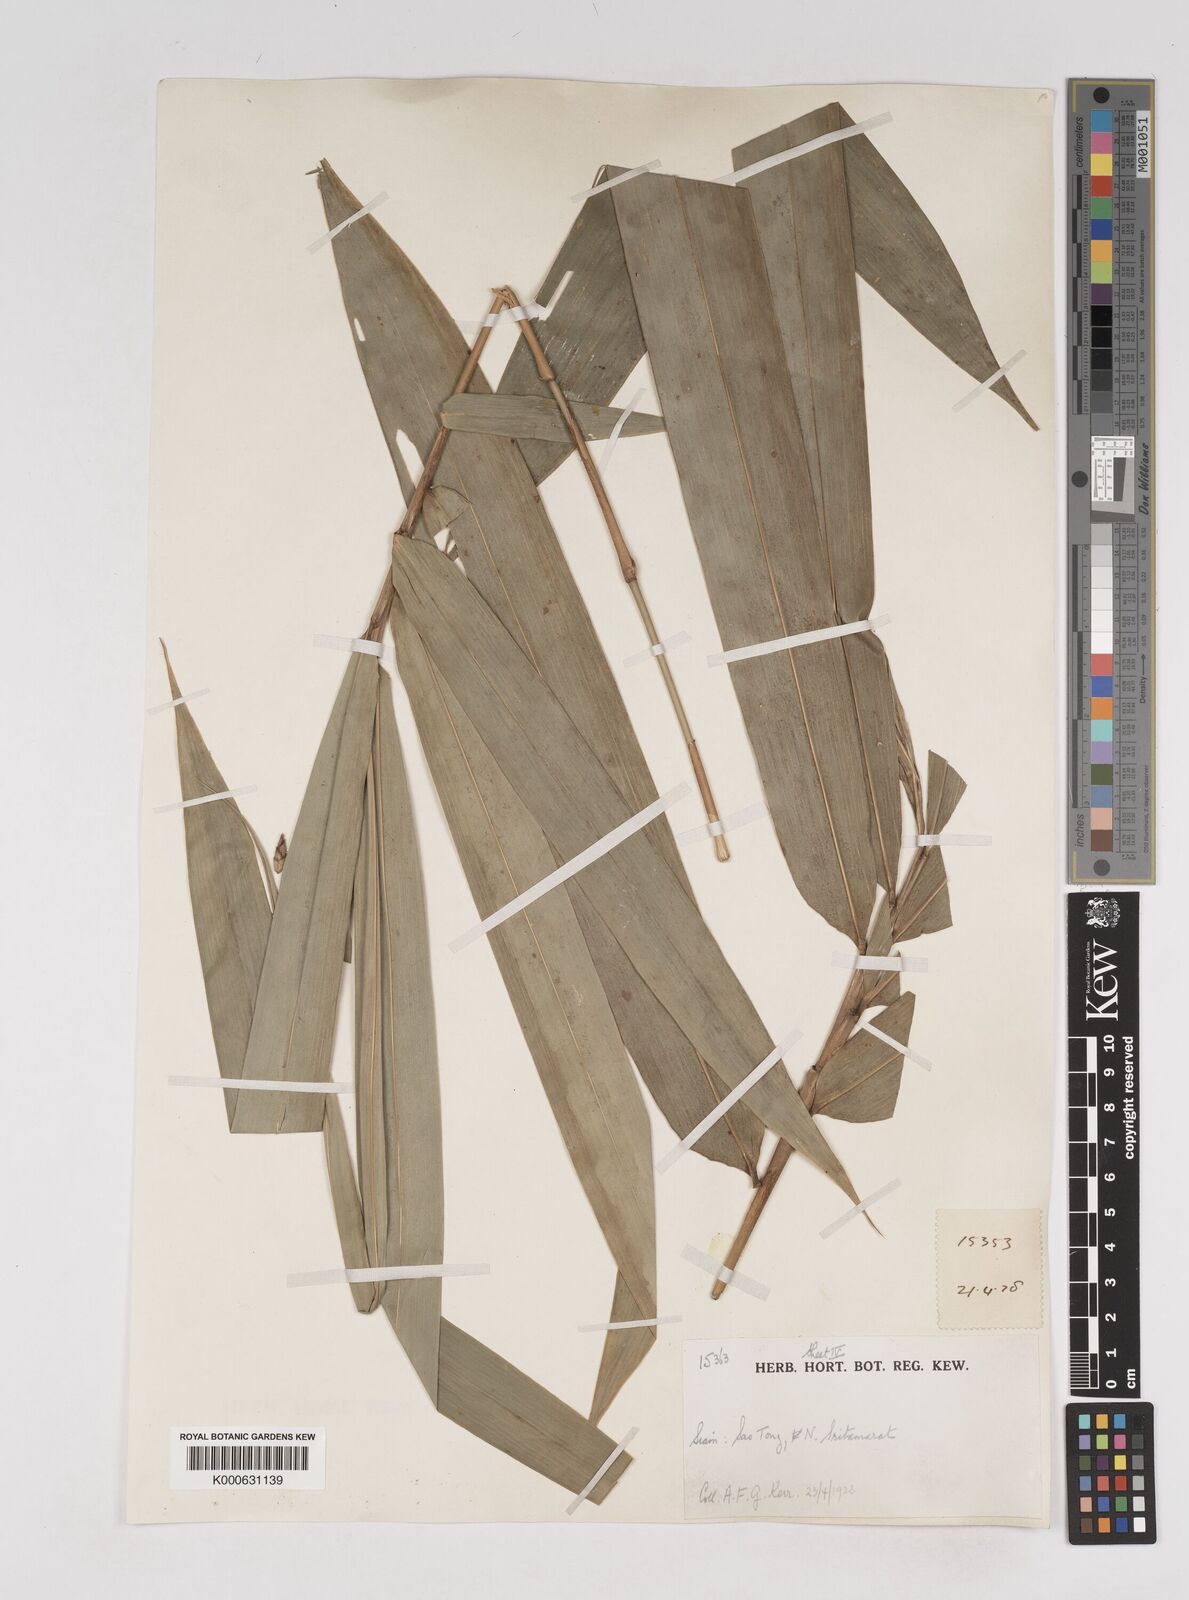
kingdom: Plantae
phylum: Tracheophyta
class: Liliopsida
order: Poales
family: Poaceae
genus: Gigantochloa
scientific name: Gigantochloa
